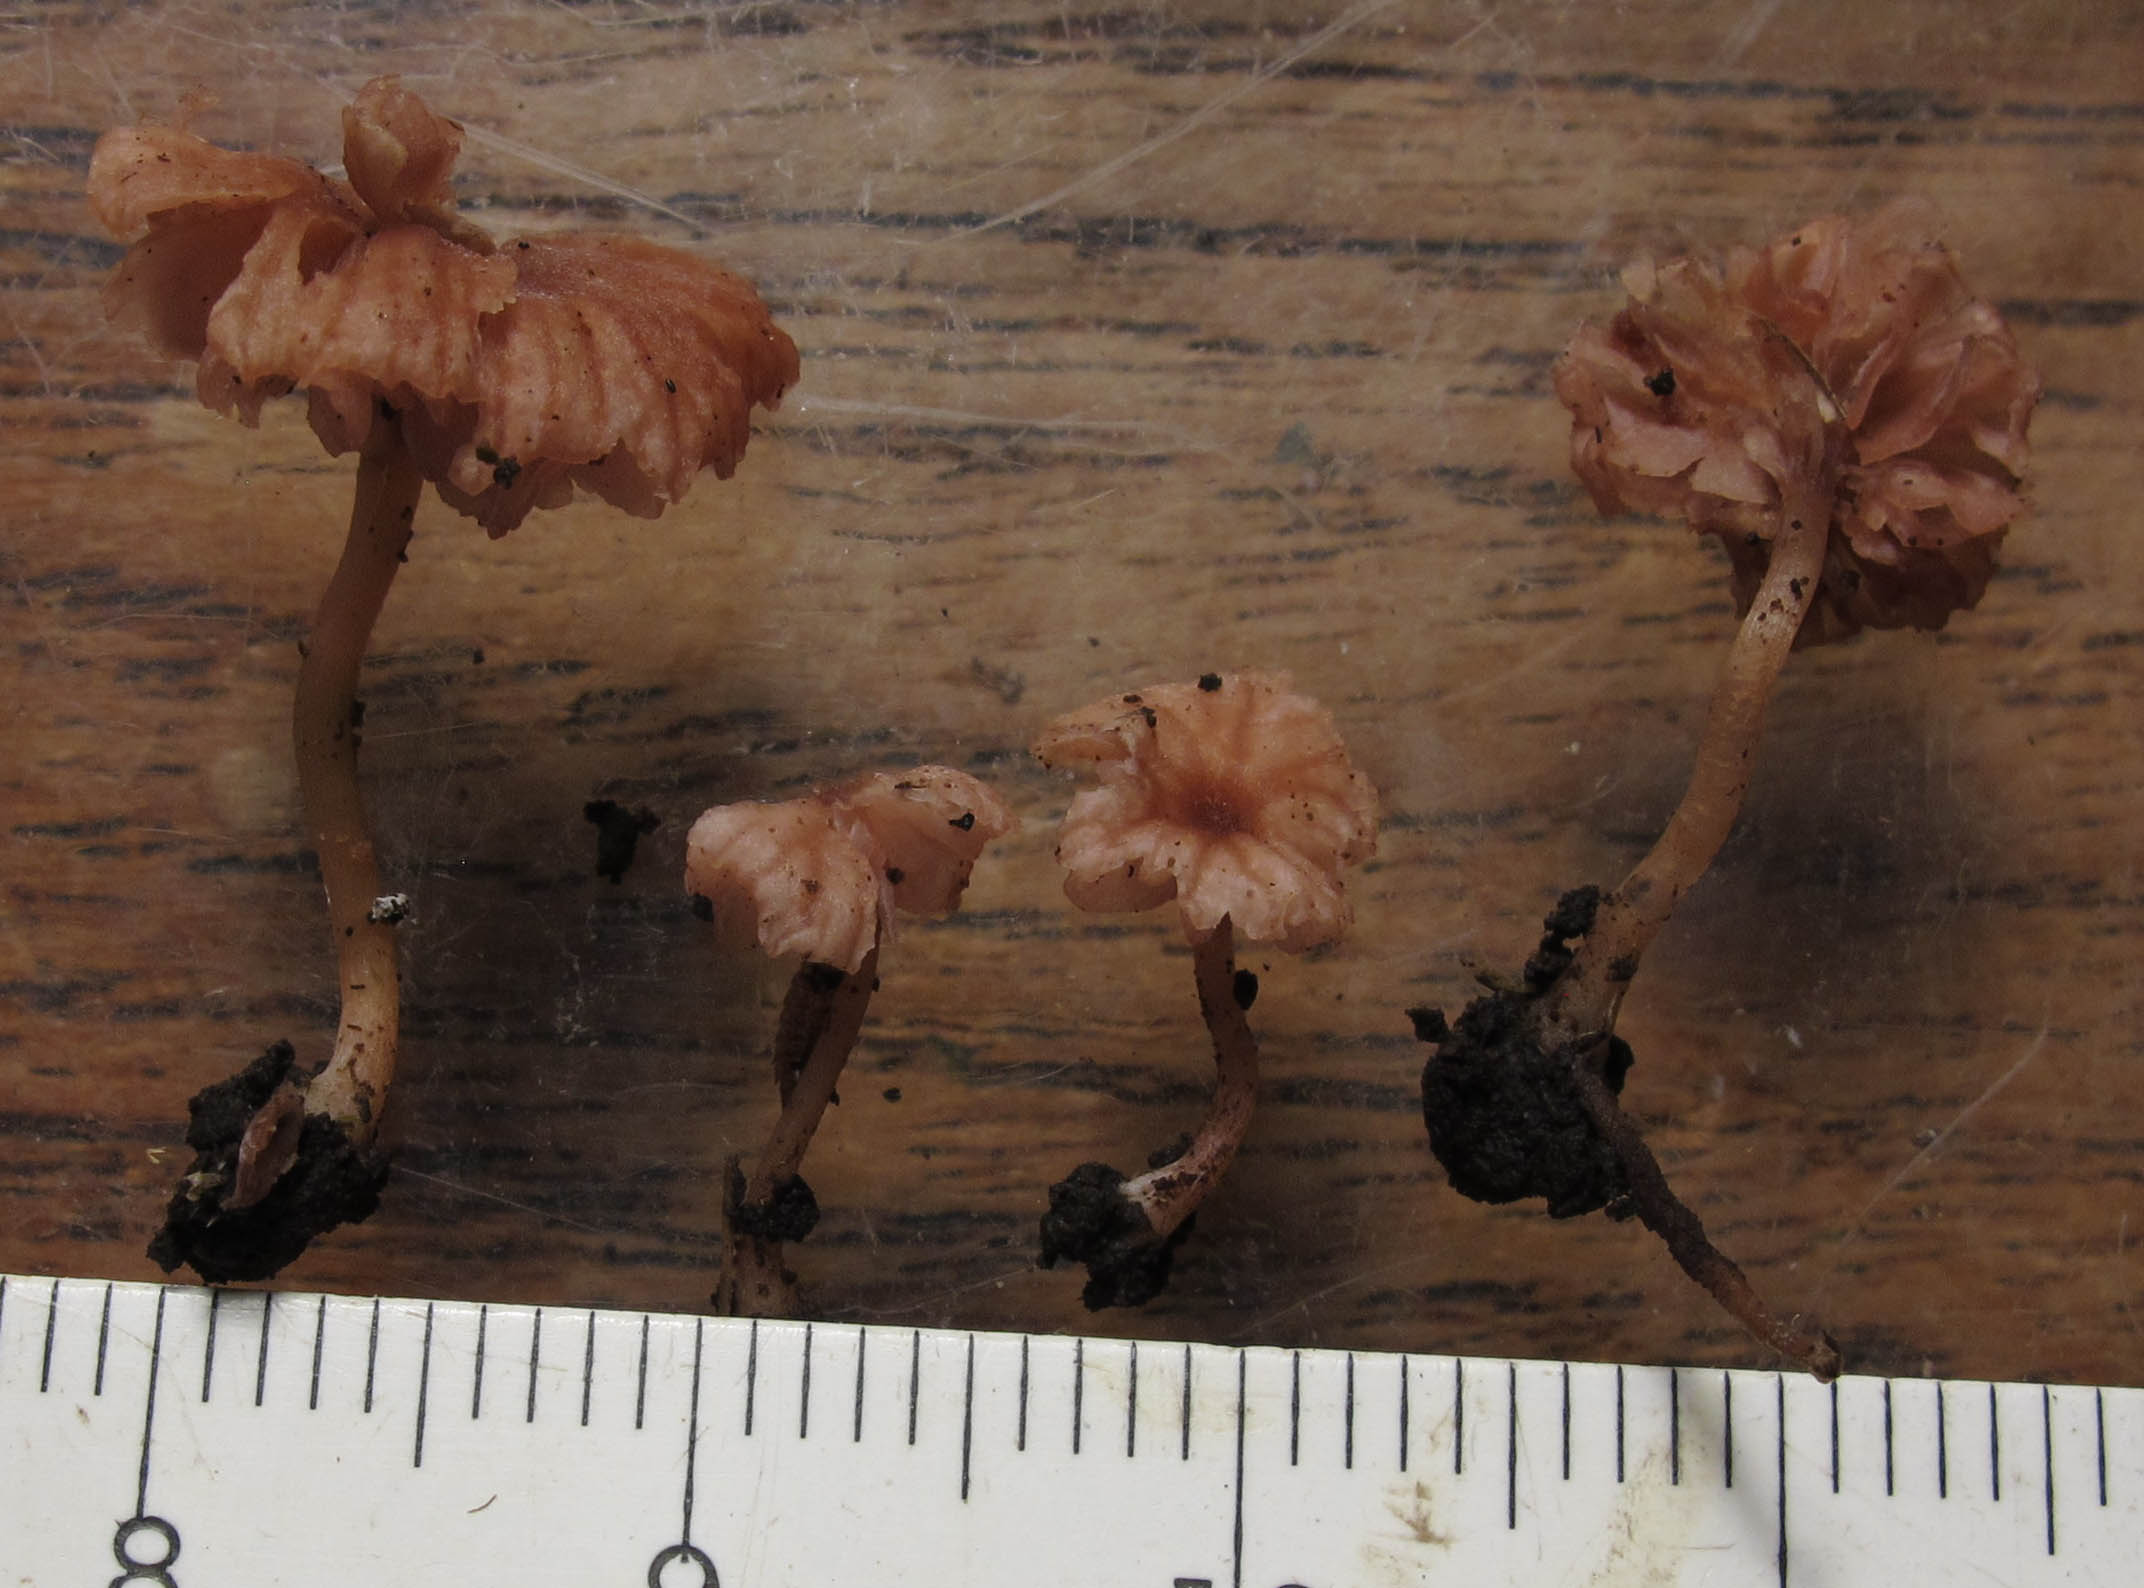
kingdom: Fungi
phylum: Basidiomycota
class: Agaricomycetes
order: Agaricales
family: Hydnangiaceae
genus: Laccaria
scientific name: Laccaria tortilis
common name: krybende ametysthat
